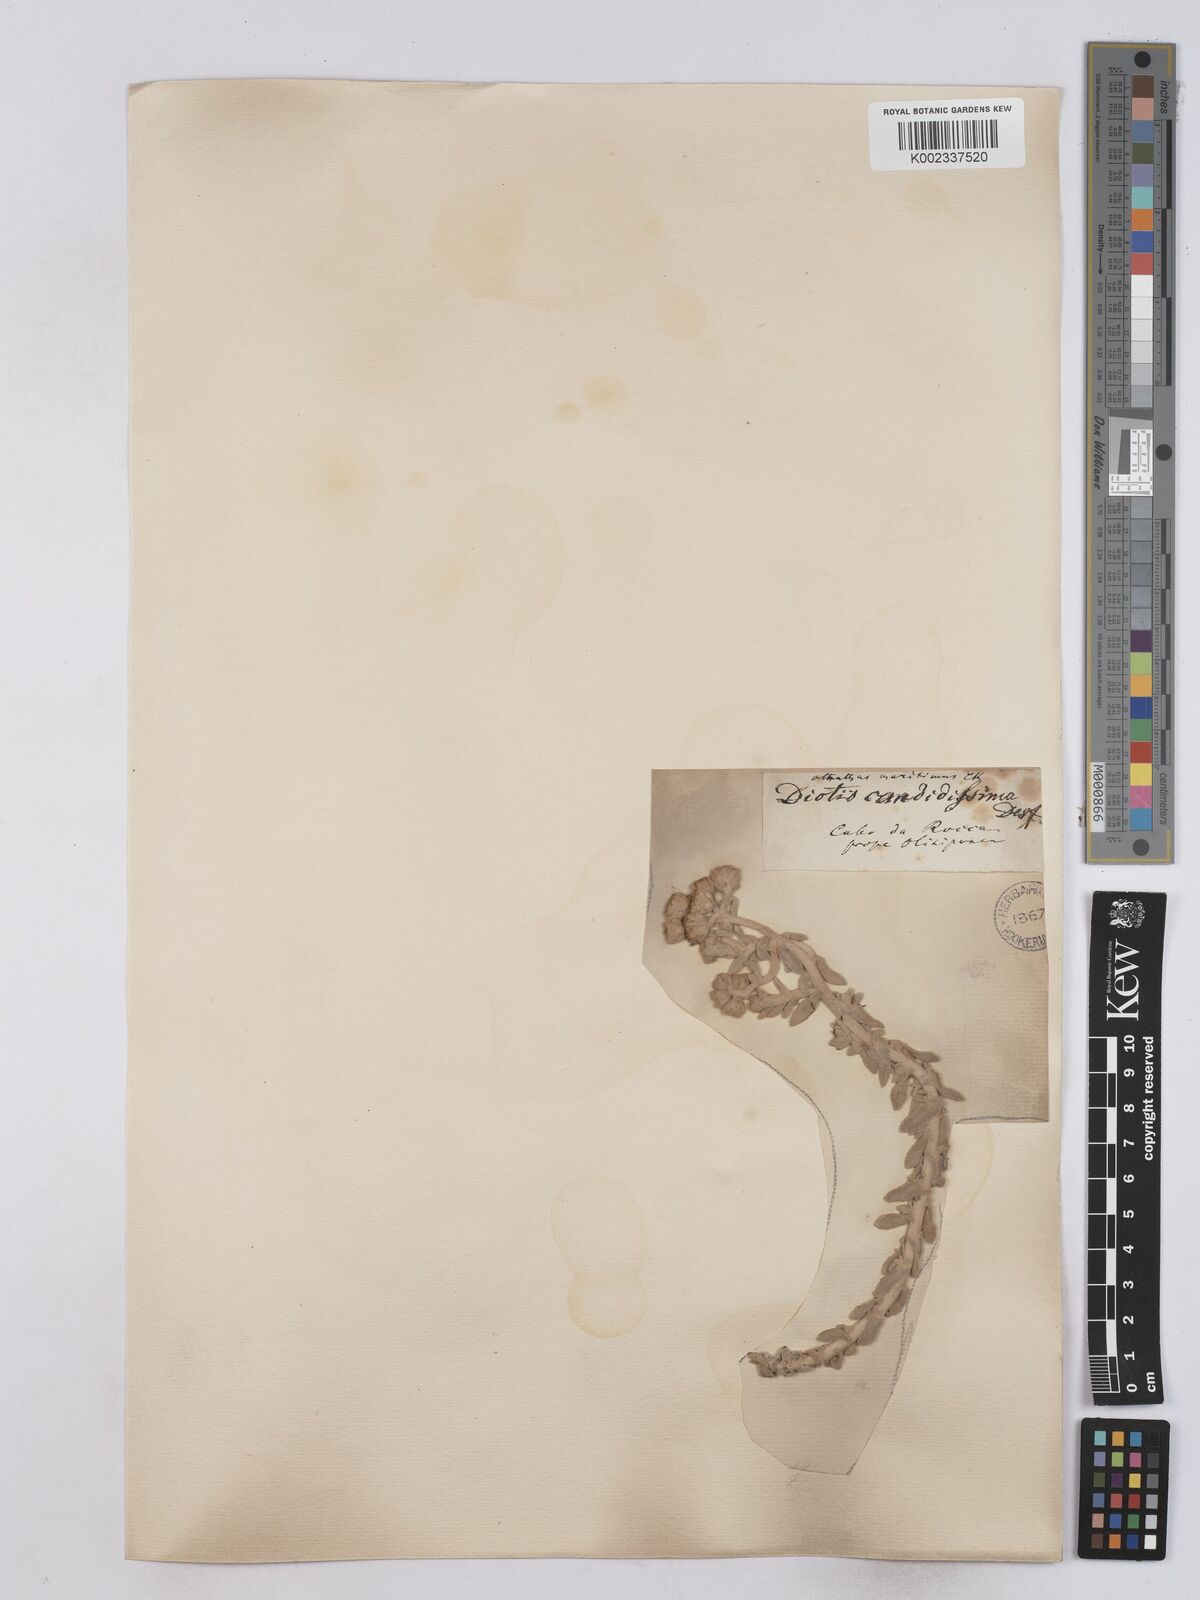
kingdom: Plantae
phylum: Tracheophyta
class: Magnoliopsida
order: Asterales
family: Asteraceae
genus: Achillea
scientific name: Achillea maritima
